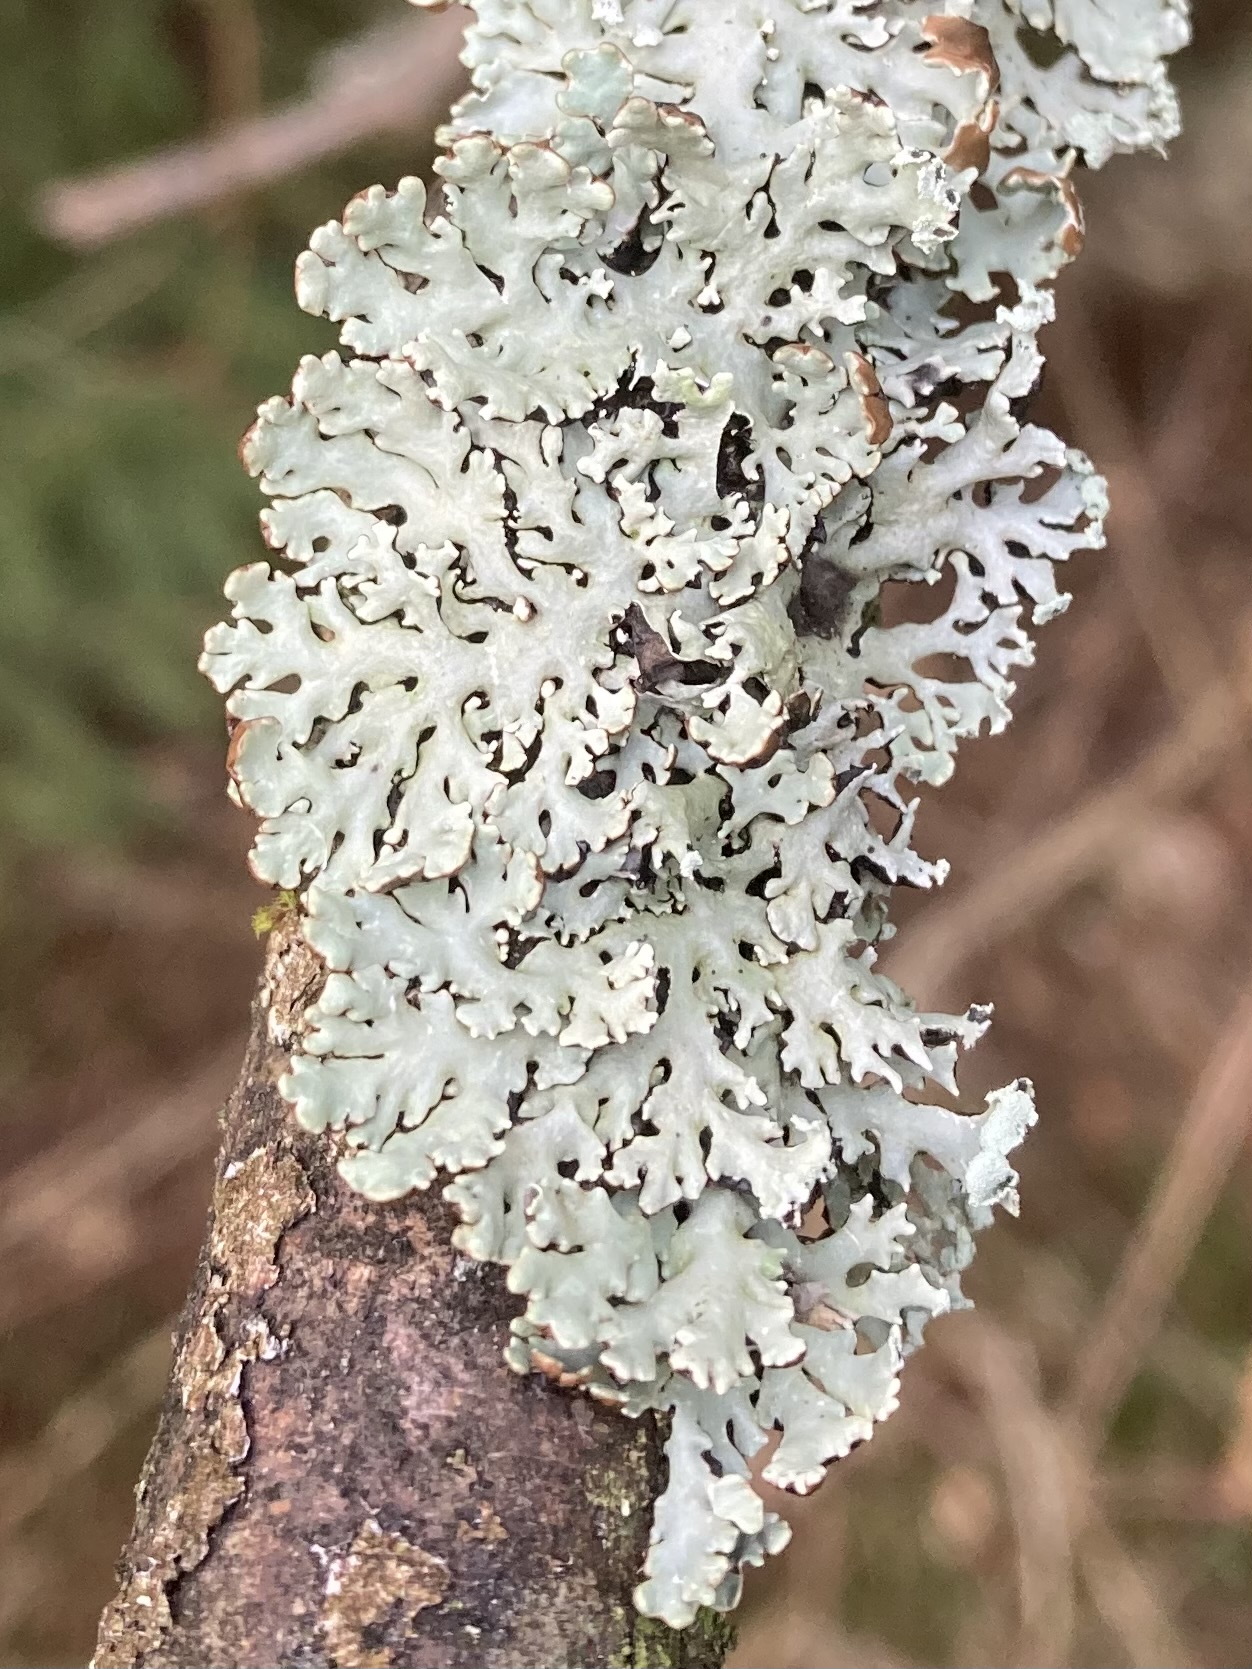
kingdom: Fungi
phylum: Ascomycota
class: Lecanoromycetes
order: Lecanorales
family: Parmeliaceae
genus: Hypogymnia
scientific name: Hypogymnia physodes
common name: almindelig kvistlav
